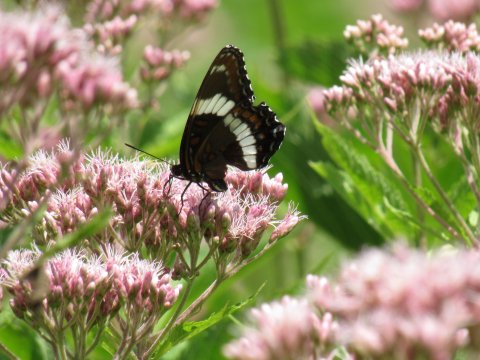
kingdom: Animalia
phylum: Arthropoda
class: Insecta
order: Lepidoptera
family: Nymphalidae
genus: Limenitis
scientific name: Limenitis arthemis
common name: Red-spotted Admiral
